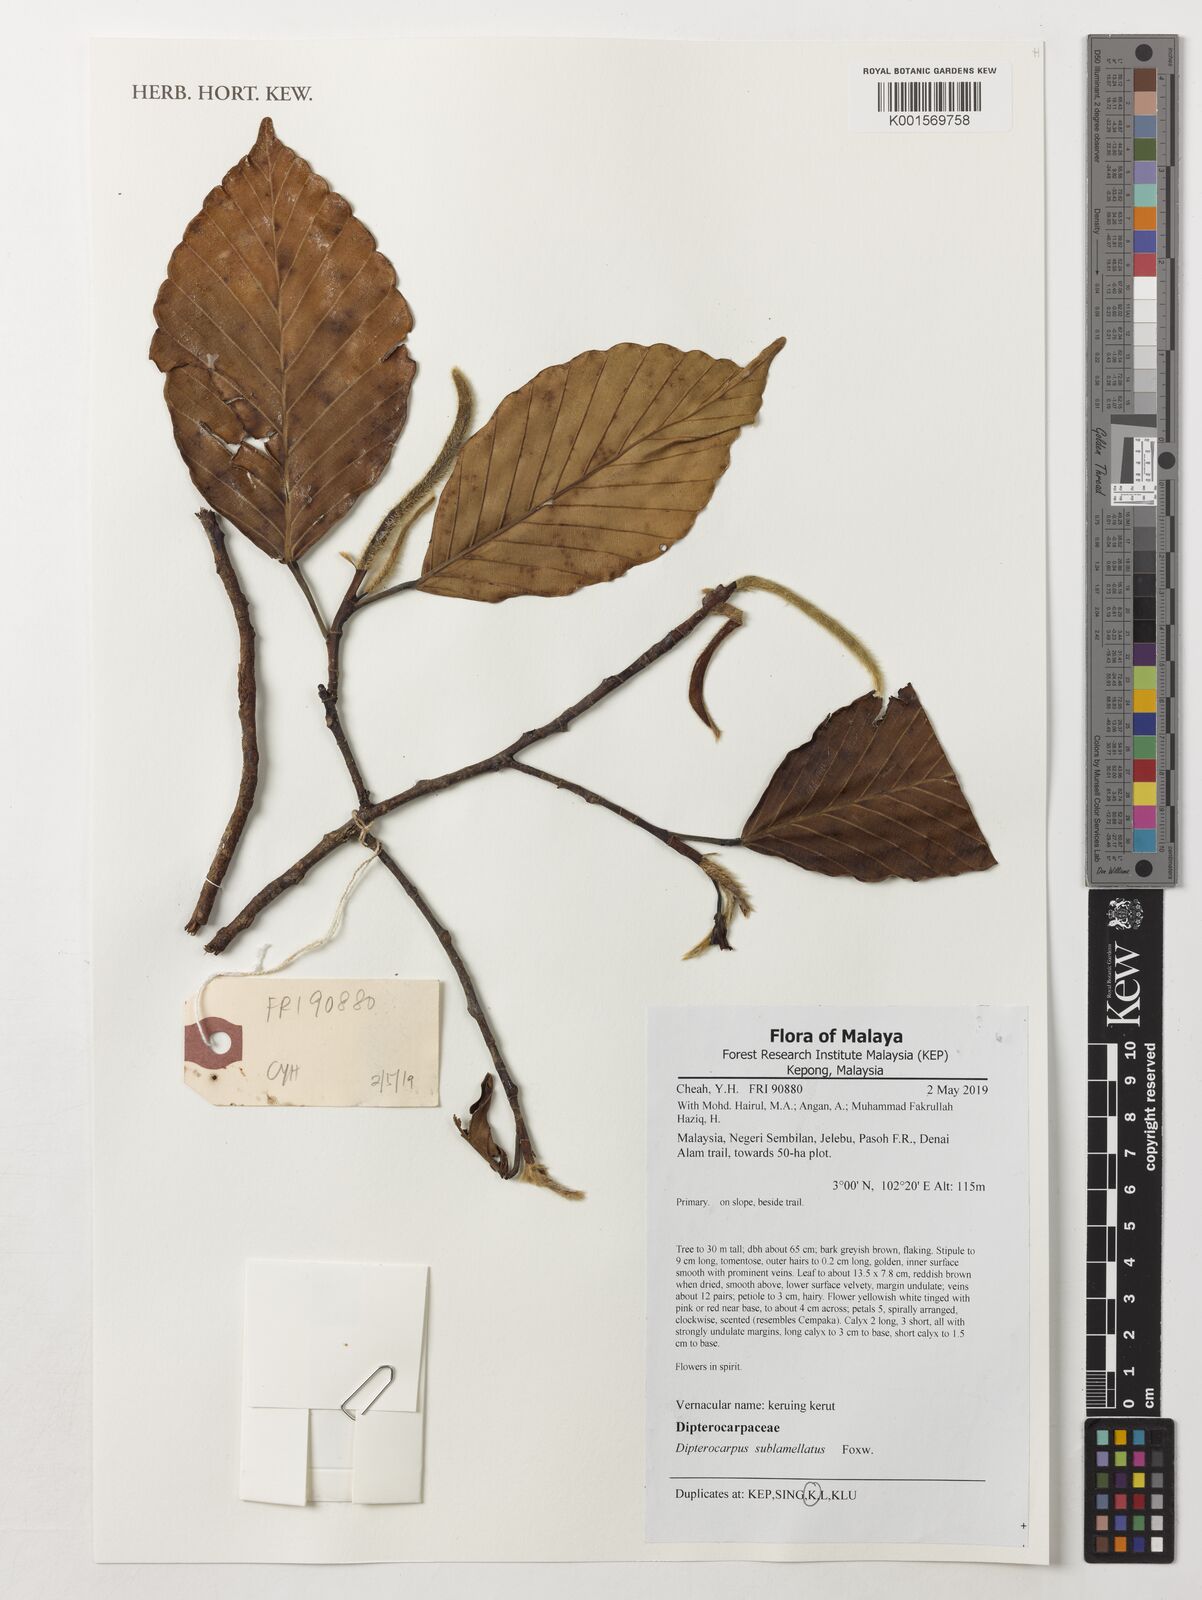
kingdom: Plantae
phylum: Tracheophyta
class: Magnoliopsida
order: Malvales
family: Dipterocarpaceae
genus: Dipterocarpus
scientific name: Dipterocarpus sublamellatus
